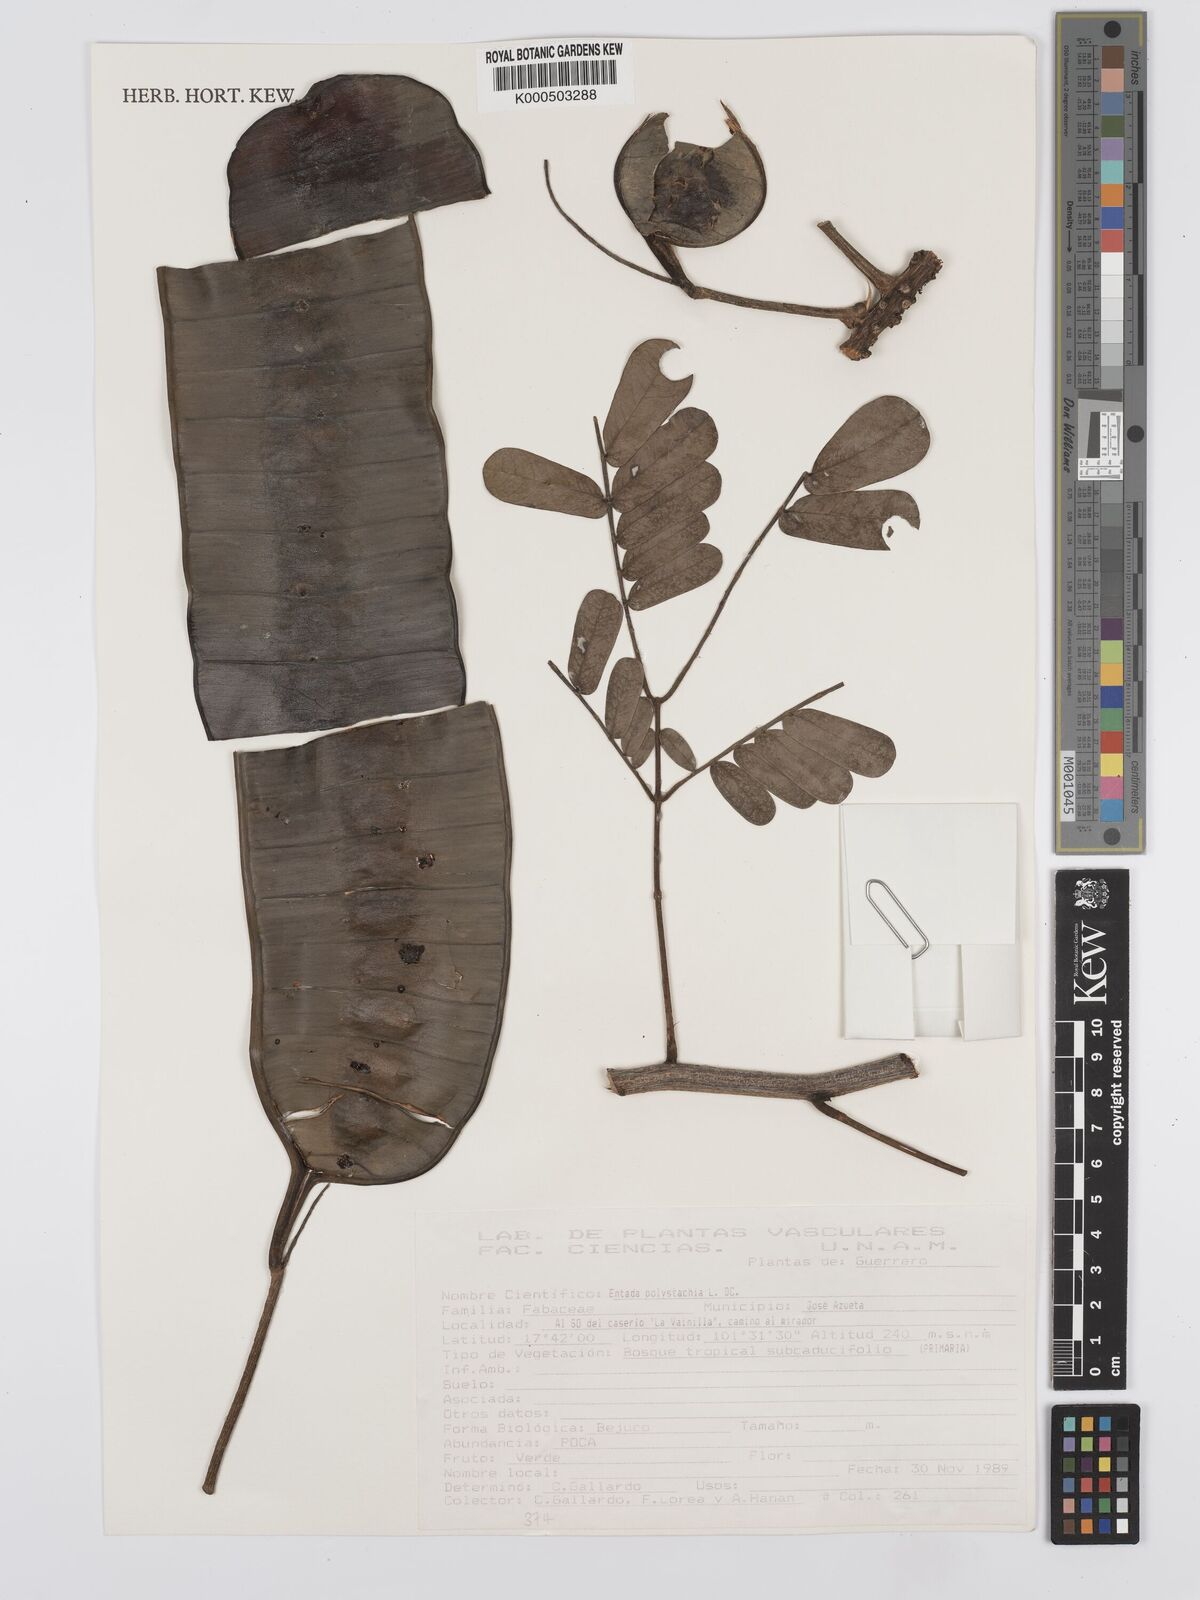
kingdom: Plantae
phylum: Tracheophyta
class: Magnoliopsida
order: Fabales
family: Fabaceae
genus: Entada
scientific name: Entada polystachya
